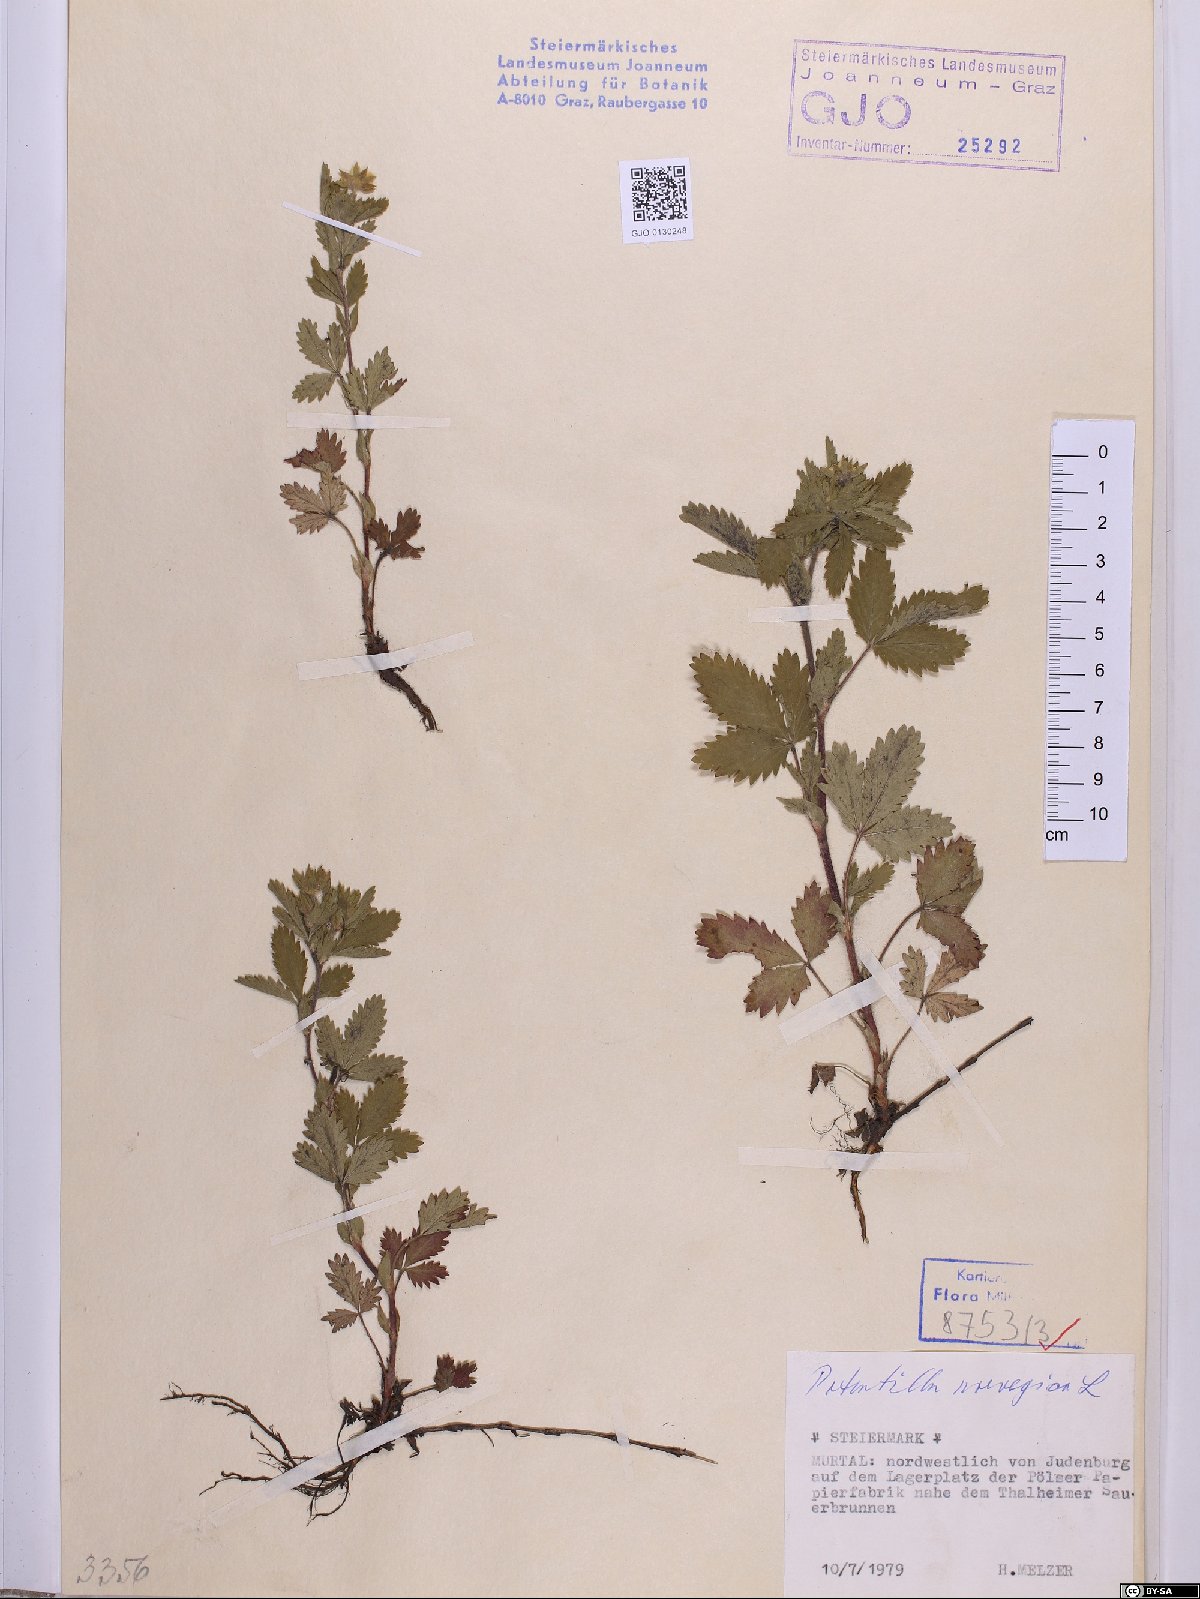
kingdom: Plantae
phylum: Tracheophyta
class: Magnoliopsida
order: Rosales
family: Rosaceae
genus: Potentilla
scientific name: Potentilla norvegica
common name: Ternate-leaved cinquefoil
